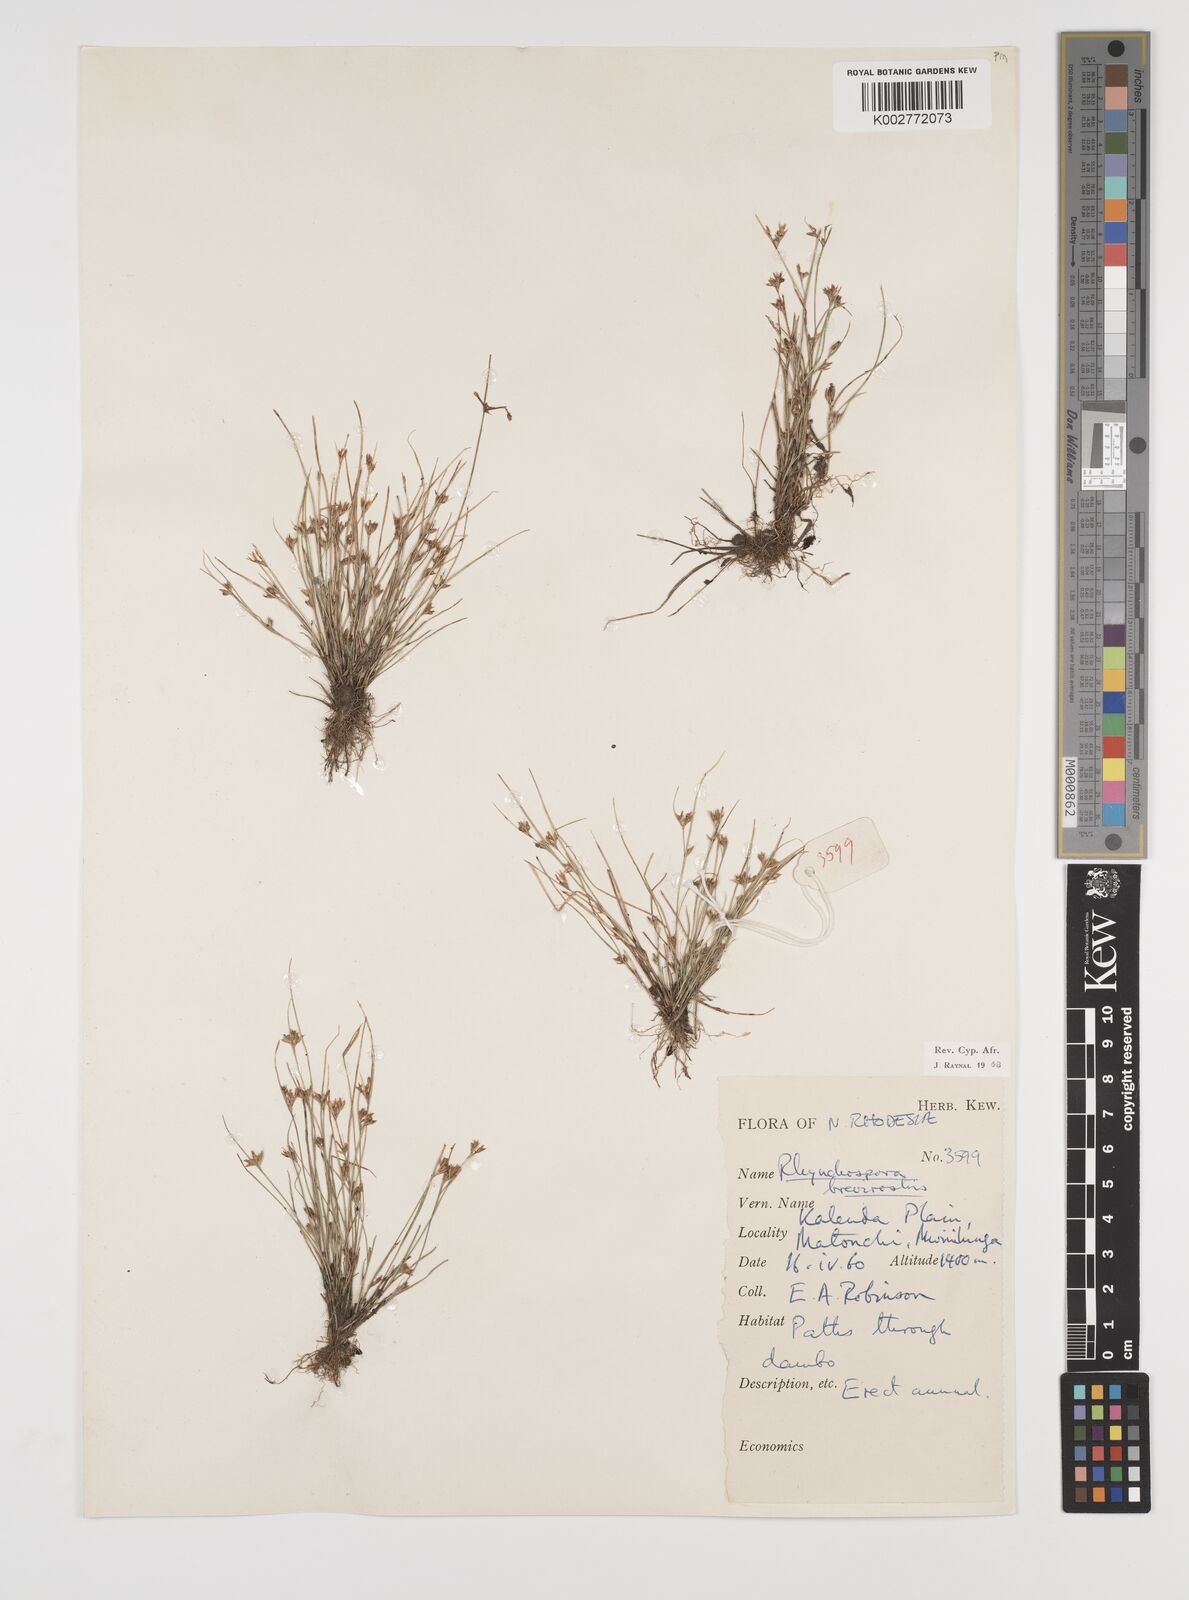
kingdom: Plantae
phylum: Tracheophyta
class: Liliopsida
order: Poales
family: Cyperaceae
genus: Rhynchospora
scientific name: Rhynchospora brevirostris
